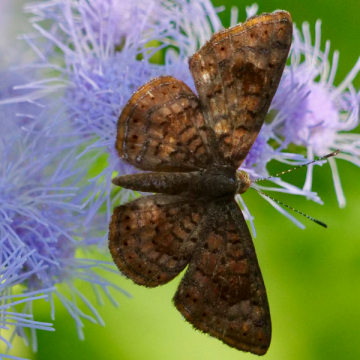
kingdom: Animalia
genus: Calephelis
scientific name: Calephelis arizonensis
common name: Arizona Metalmark
